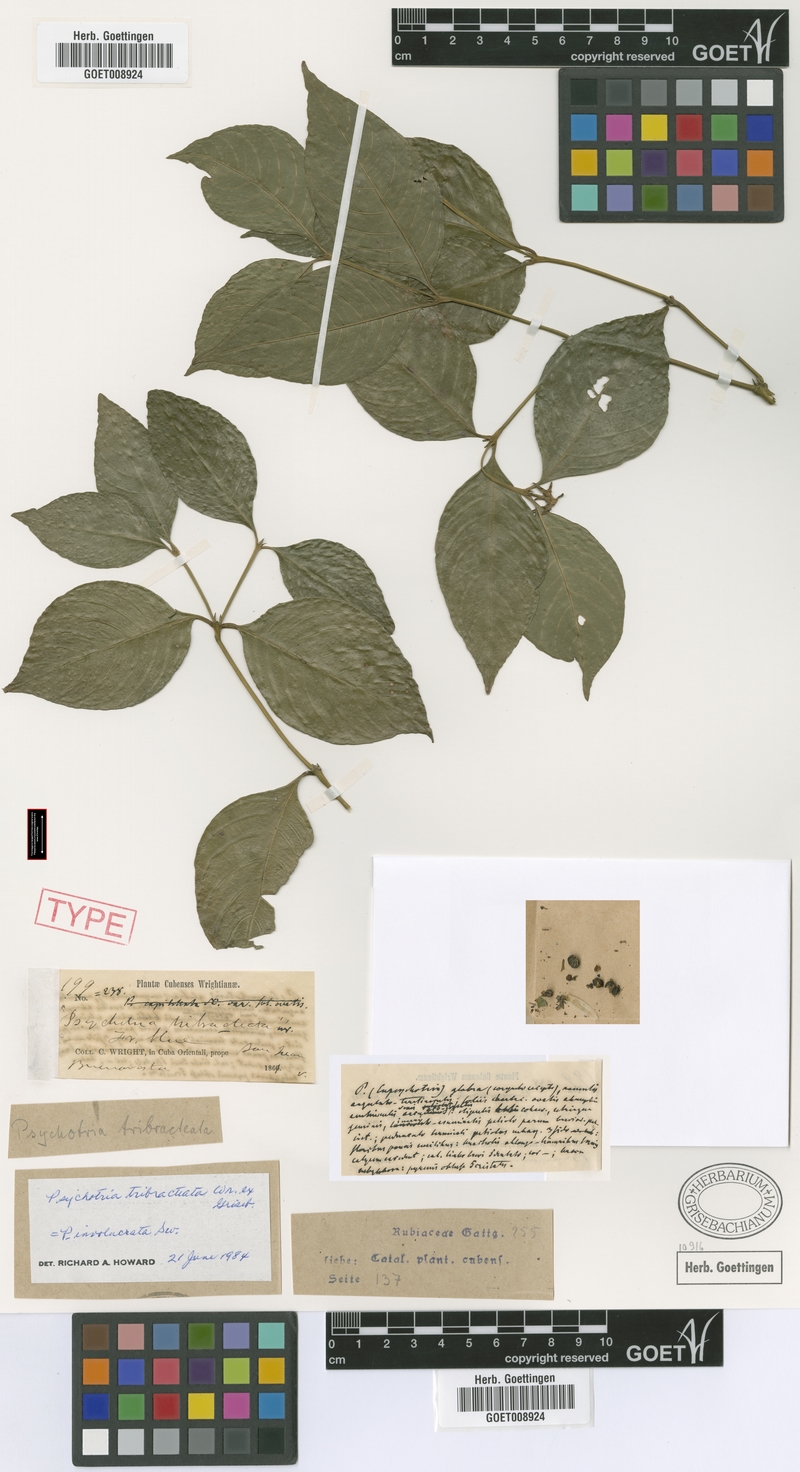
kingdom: Plantae
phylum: Tracheophyta
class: Magnoliopsida
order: Gentianales
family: Rubiaceae
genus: Palicourea
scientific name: Palicourea hoffmannseggiana
